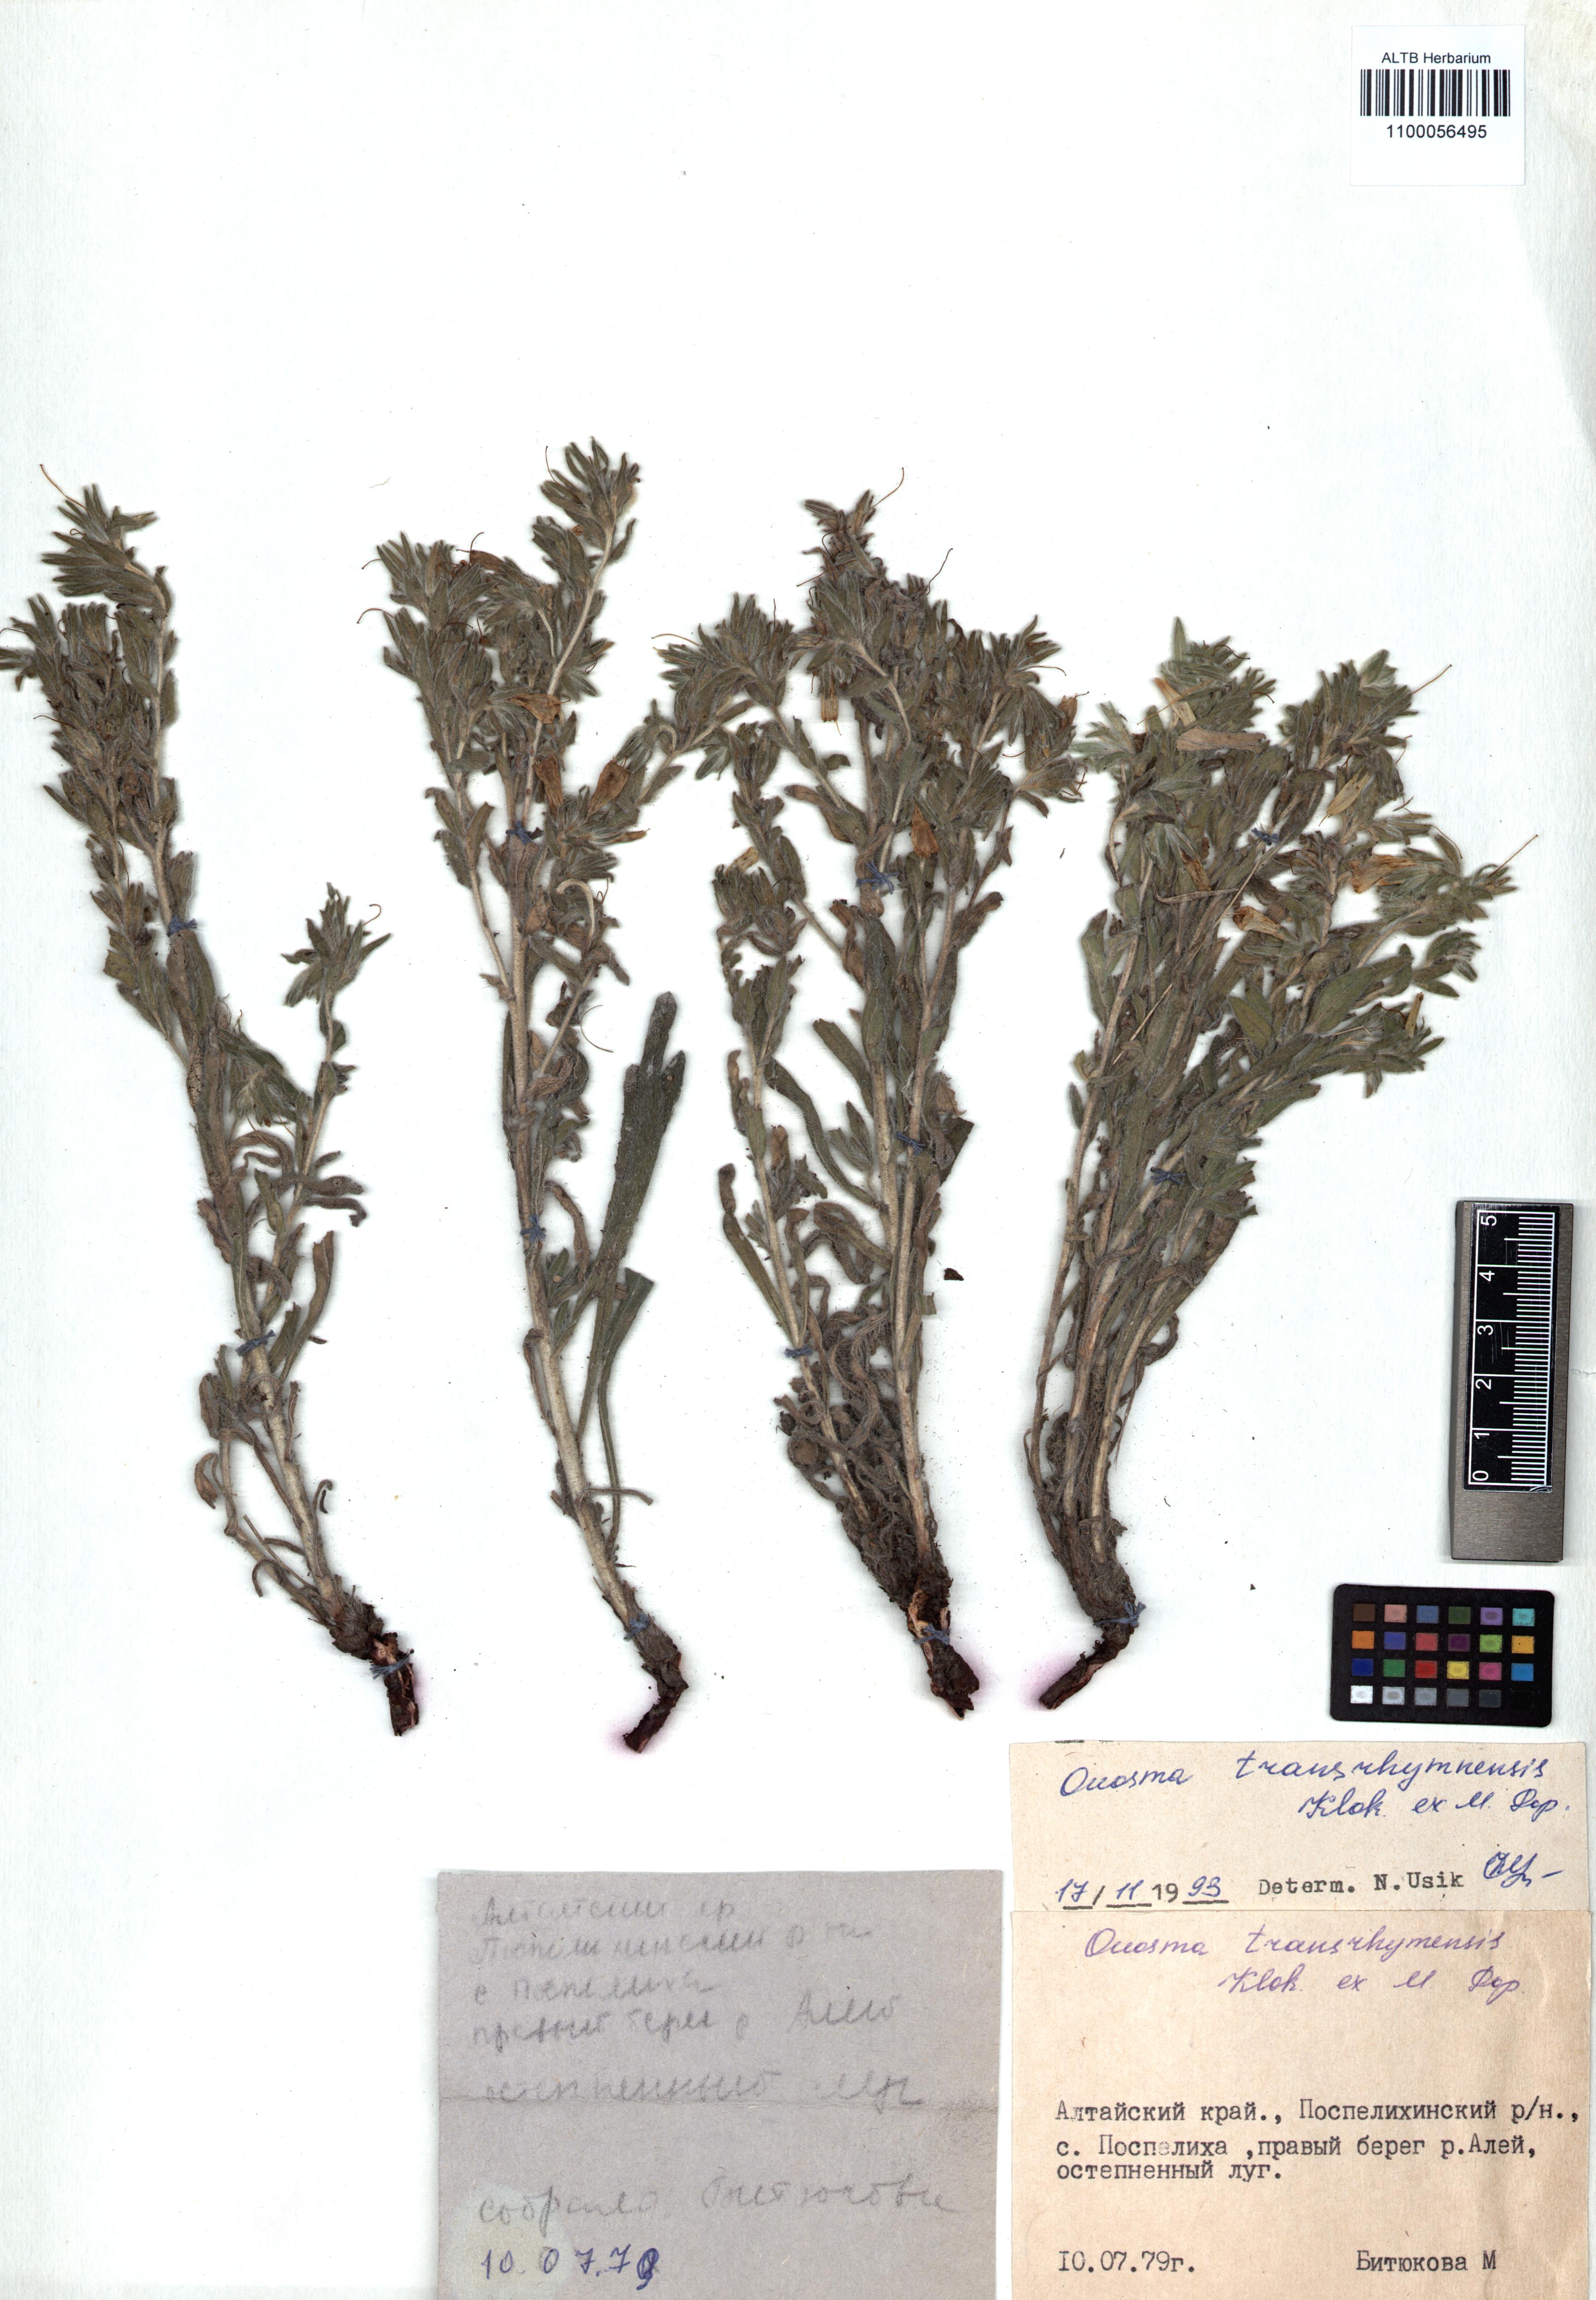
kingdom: Plantae
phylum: Tracheophyta
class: Magnoliopsida
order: Boraginales
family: Boraginaceae
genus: Onosma
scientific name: Onosma transrhymnensis
